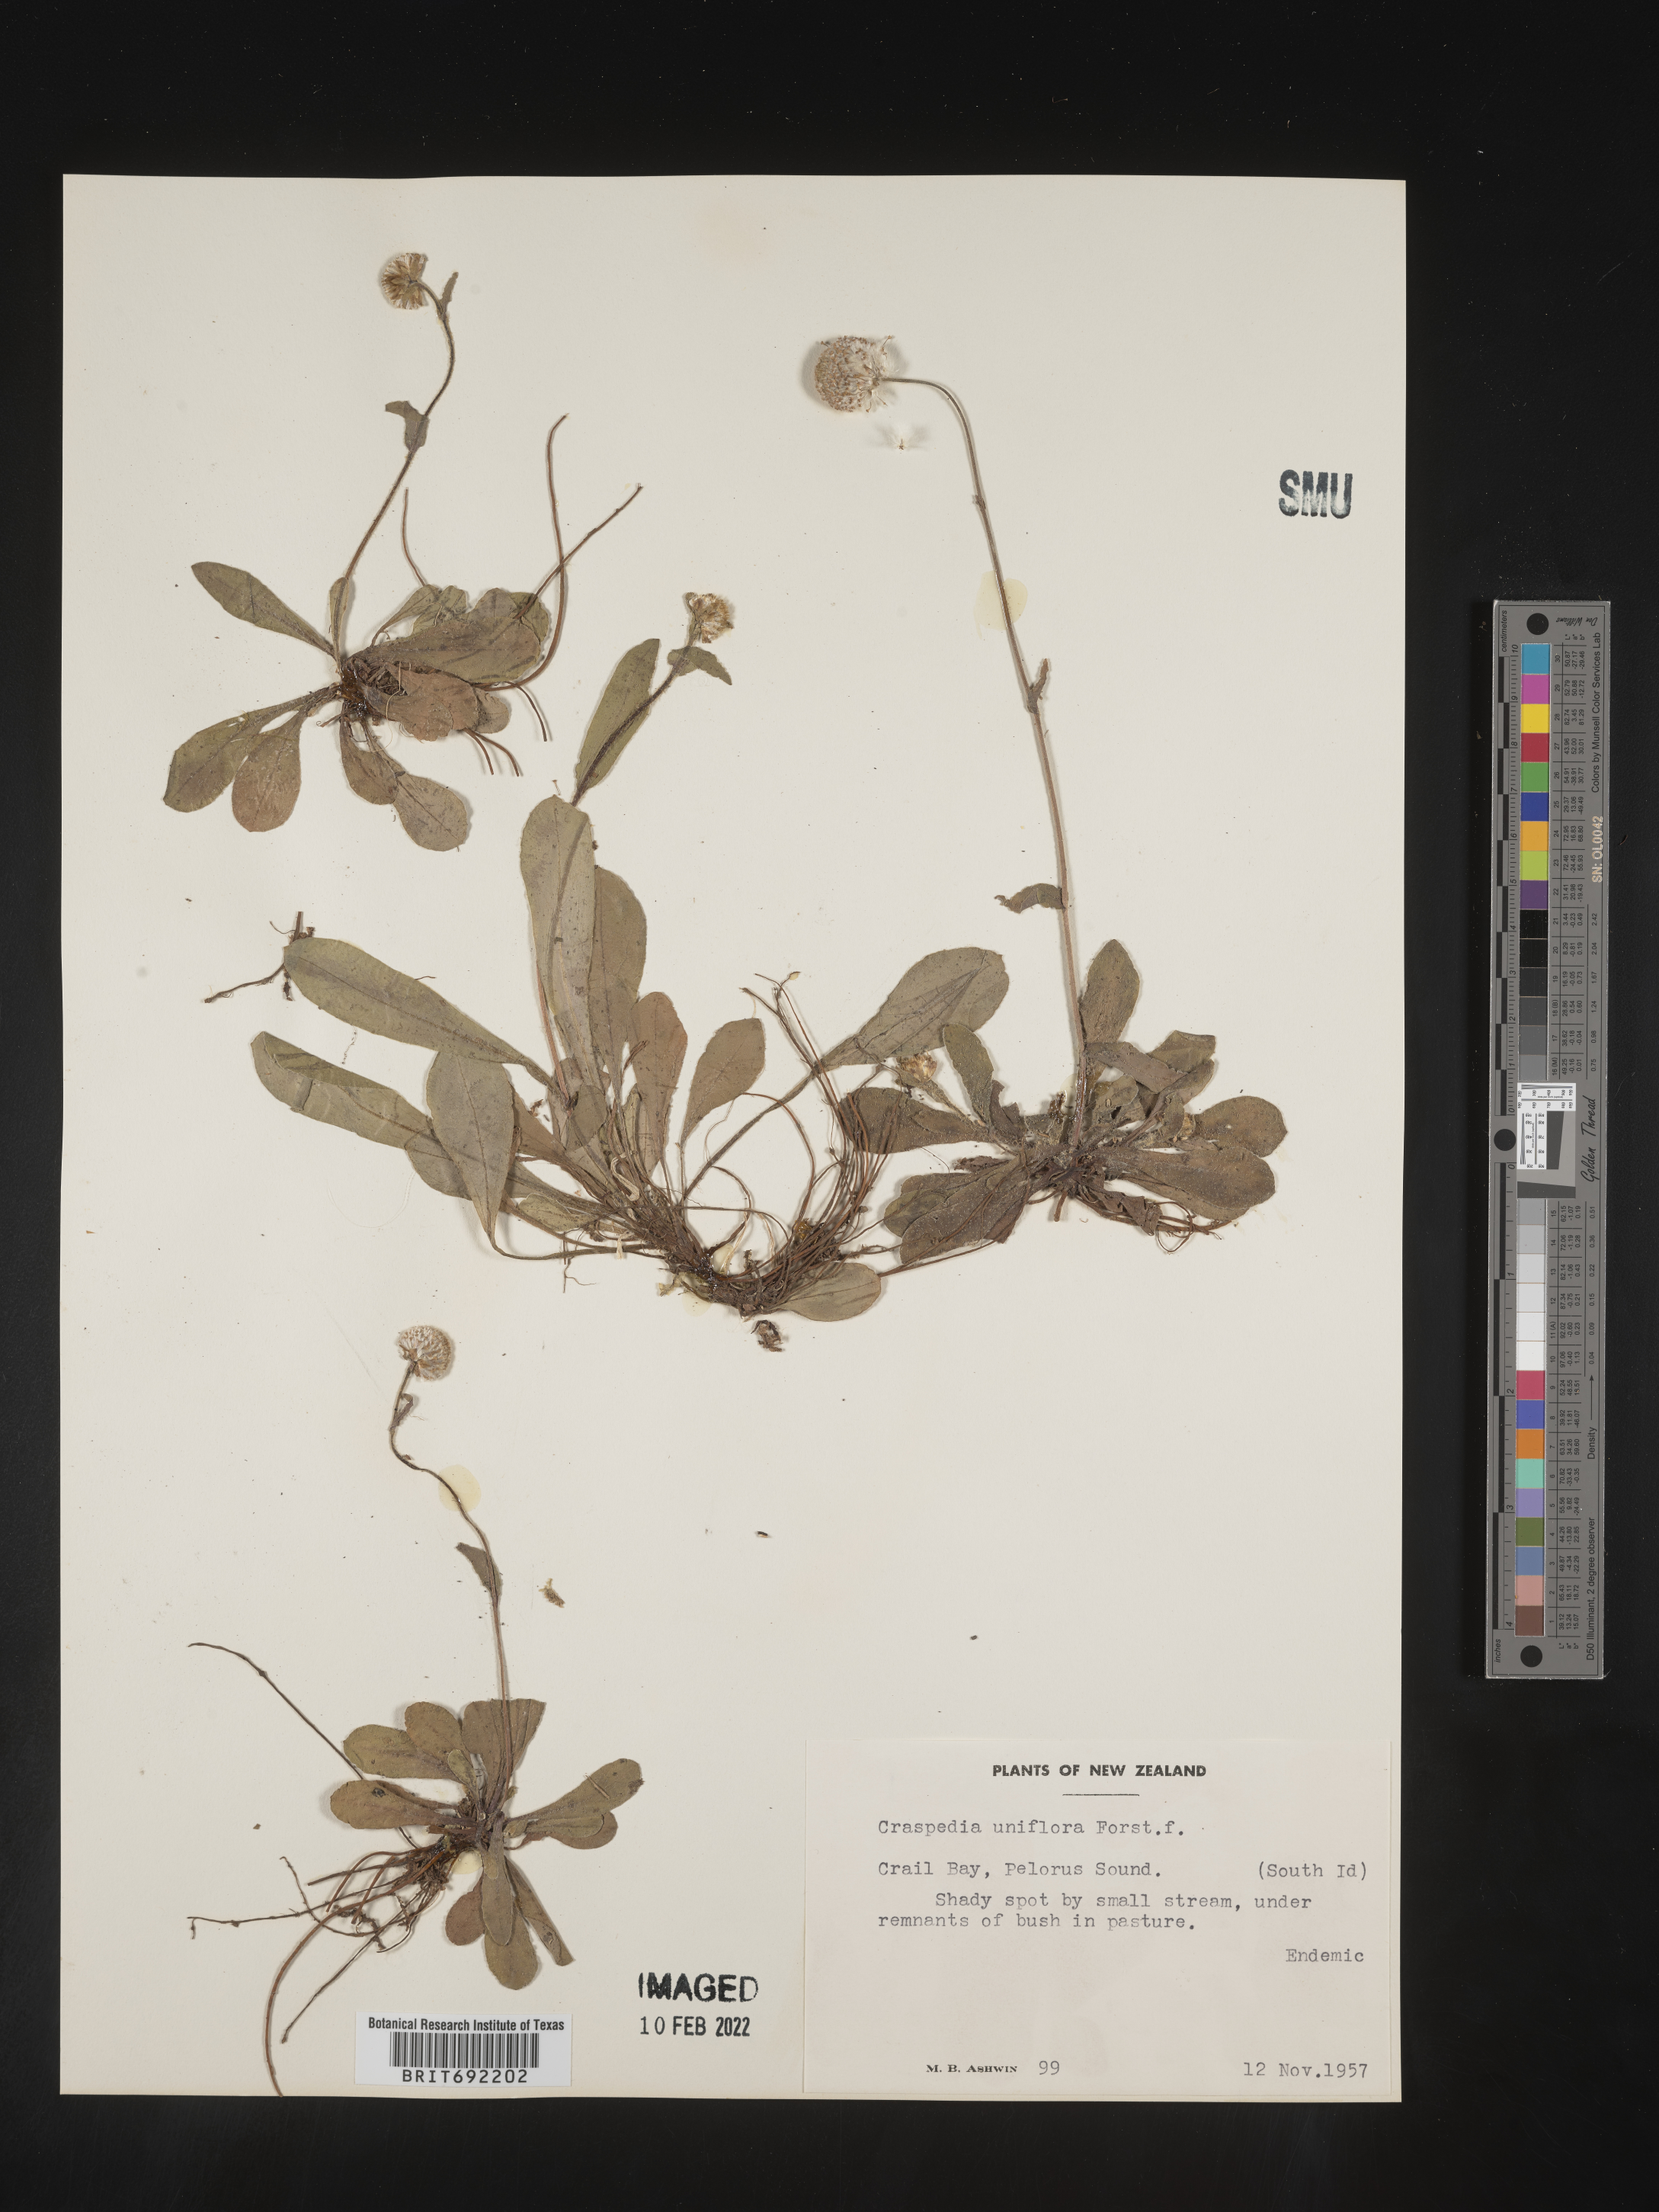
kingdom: Plantae
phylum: Tracheophyta
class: Magnoliopsida
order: Asterales
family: Asteraceae
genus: Craspedia
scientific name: Craspedia
